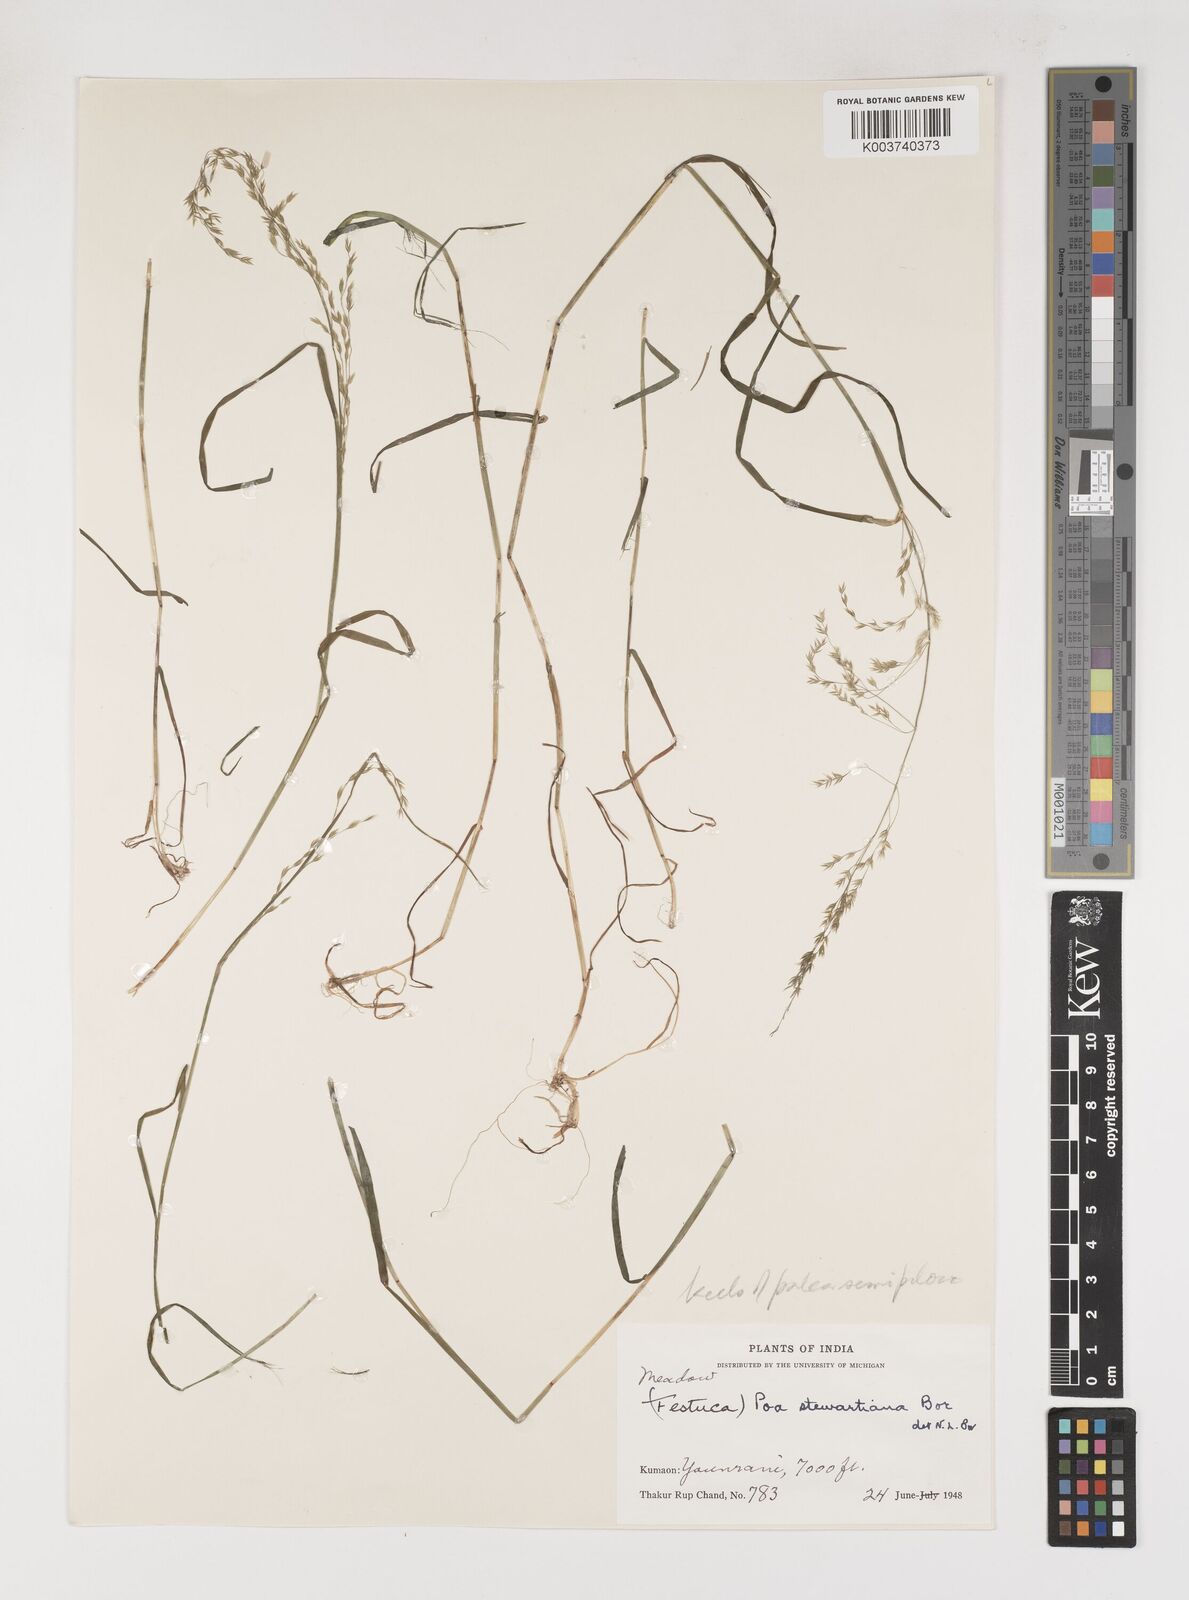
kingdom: Plantae
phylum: Tracheophyta
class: Liliopsida
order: Poales
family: Poaceae
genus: Poa
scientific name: Poa stewartiana
